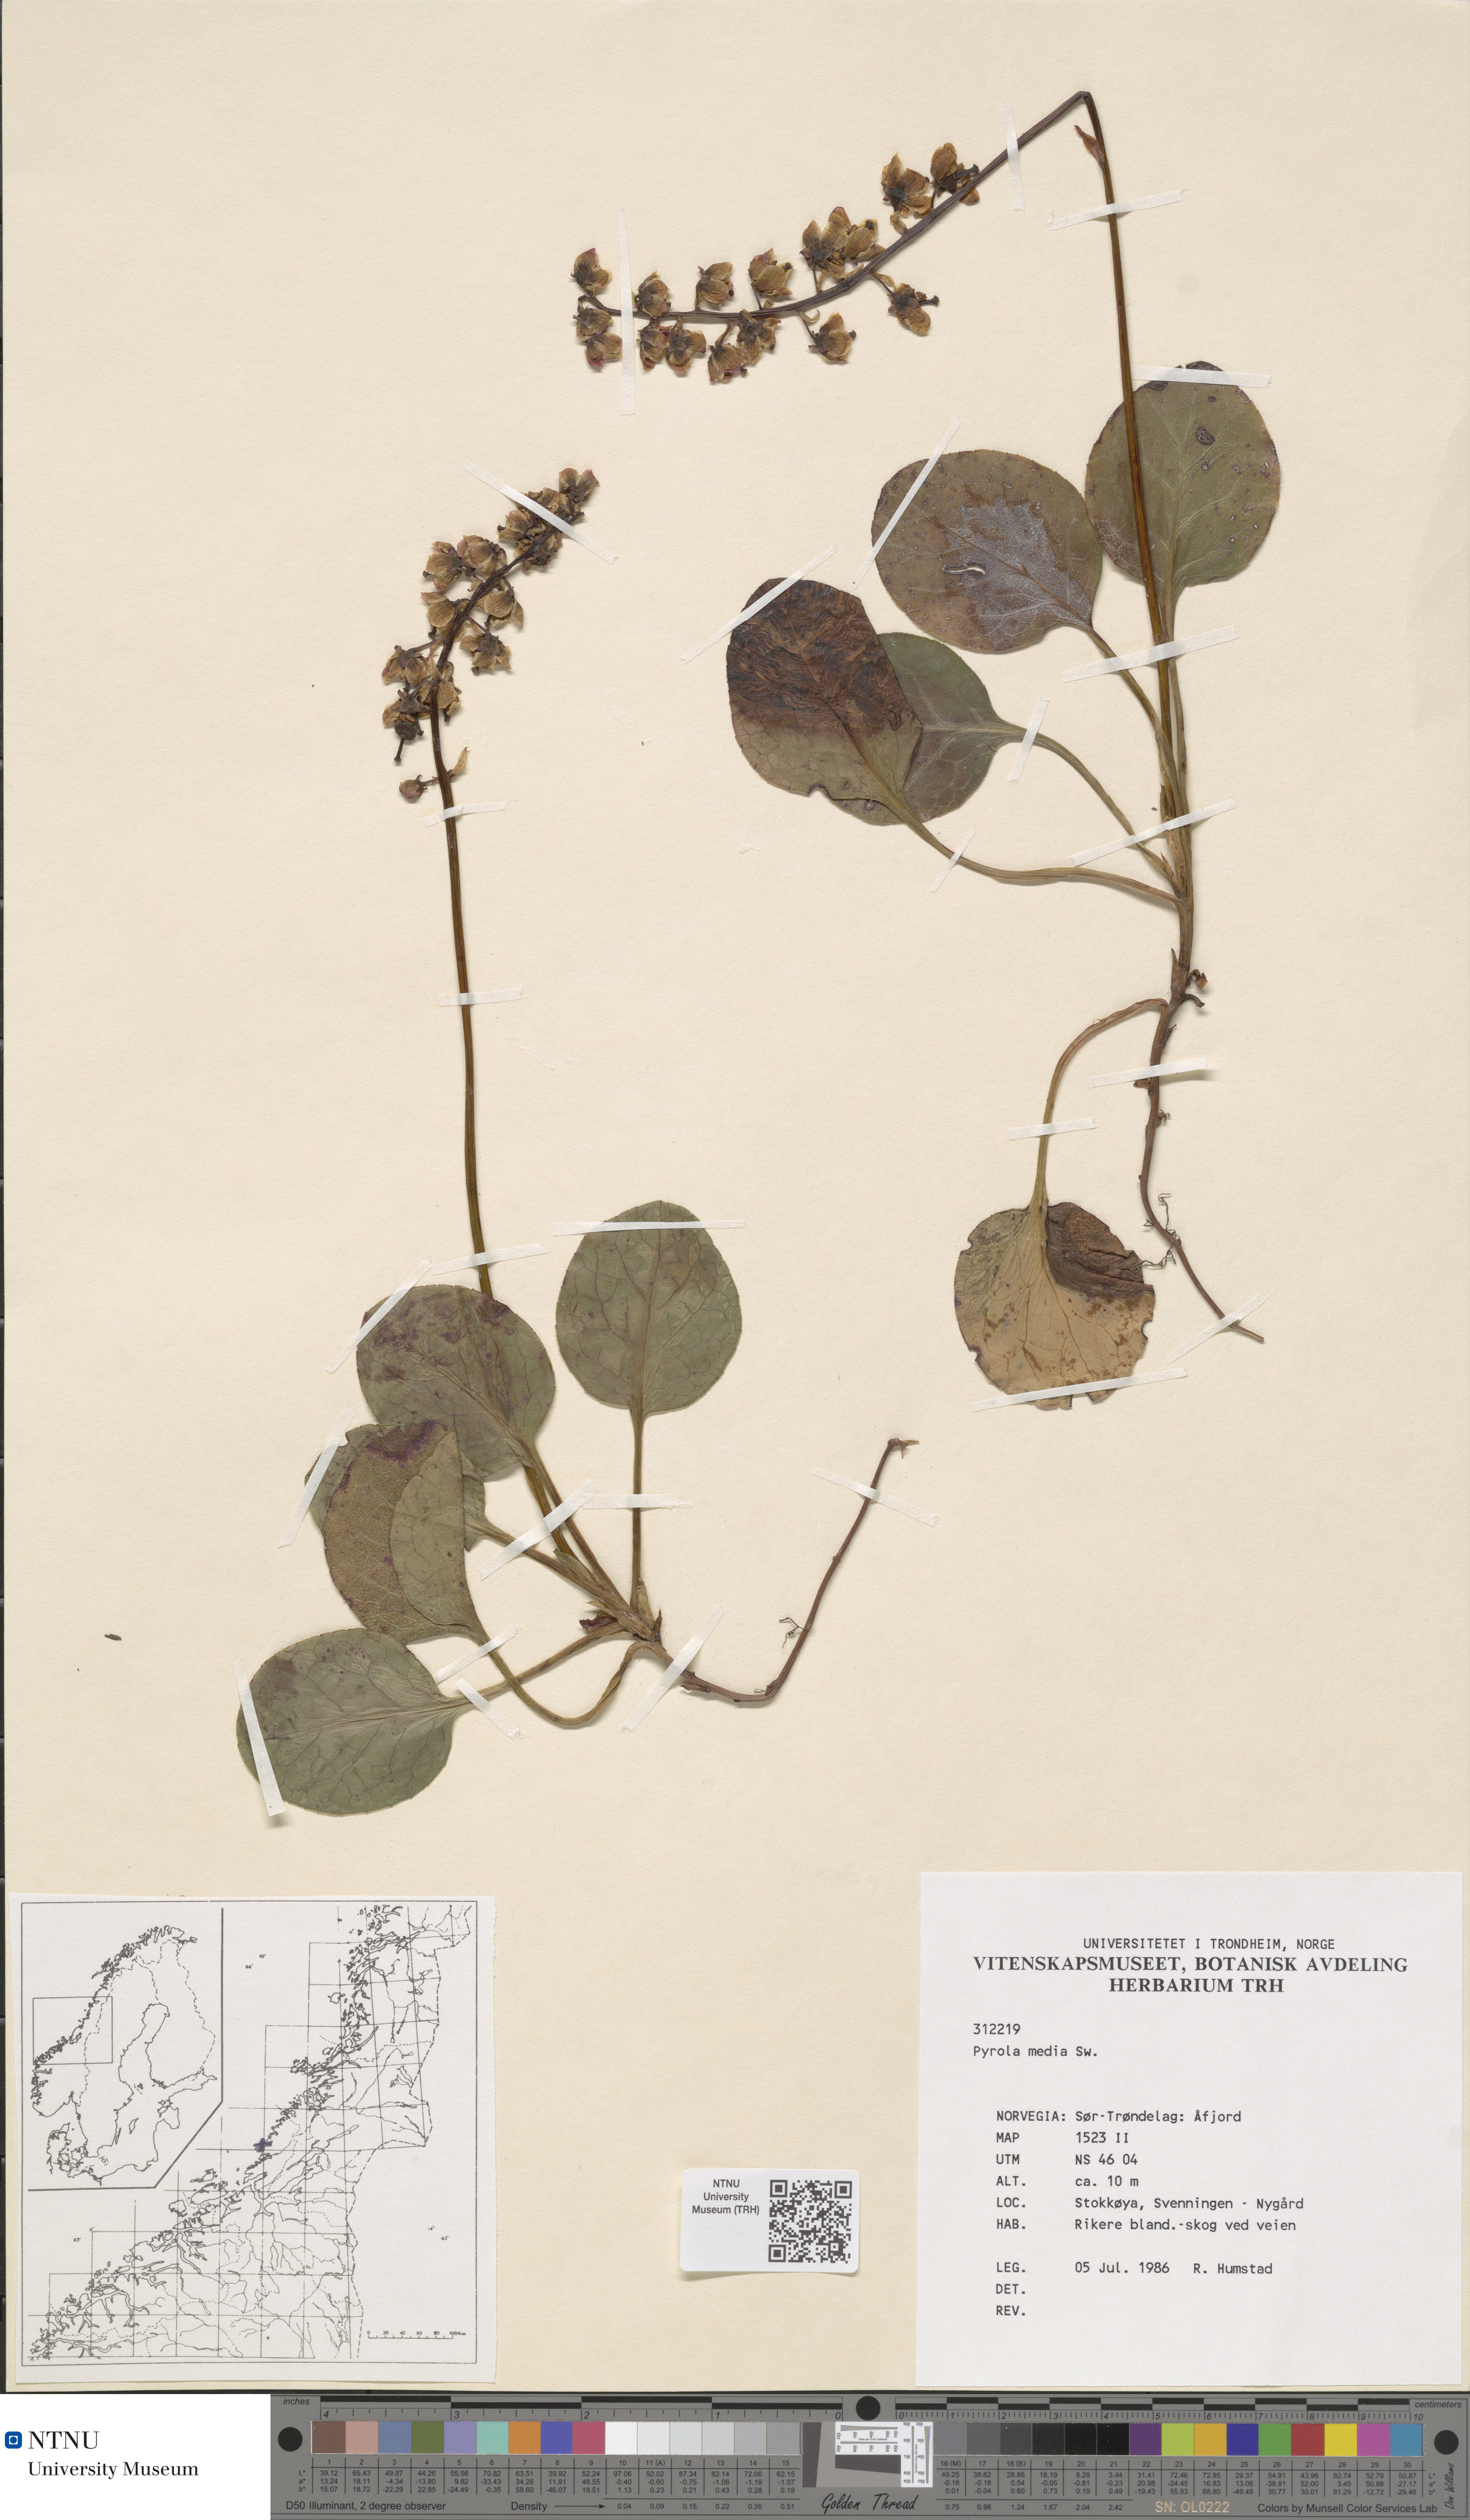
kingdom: Plantae
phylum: Tracheophyta
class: Magnoliopsida
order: Ericales
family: Ericaceae
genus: Pyrola
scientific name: Pyrola media
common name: Intermediate wintergreen
